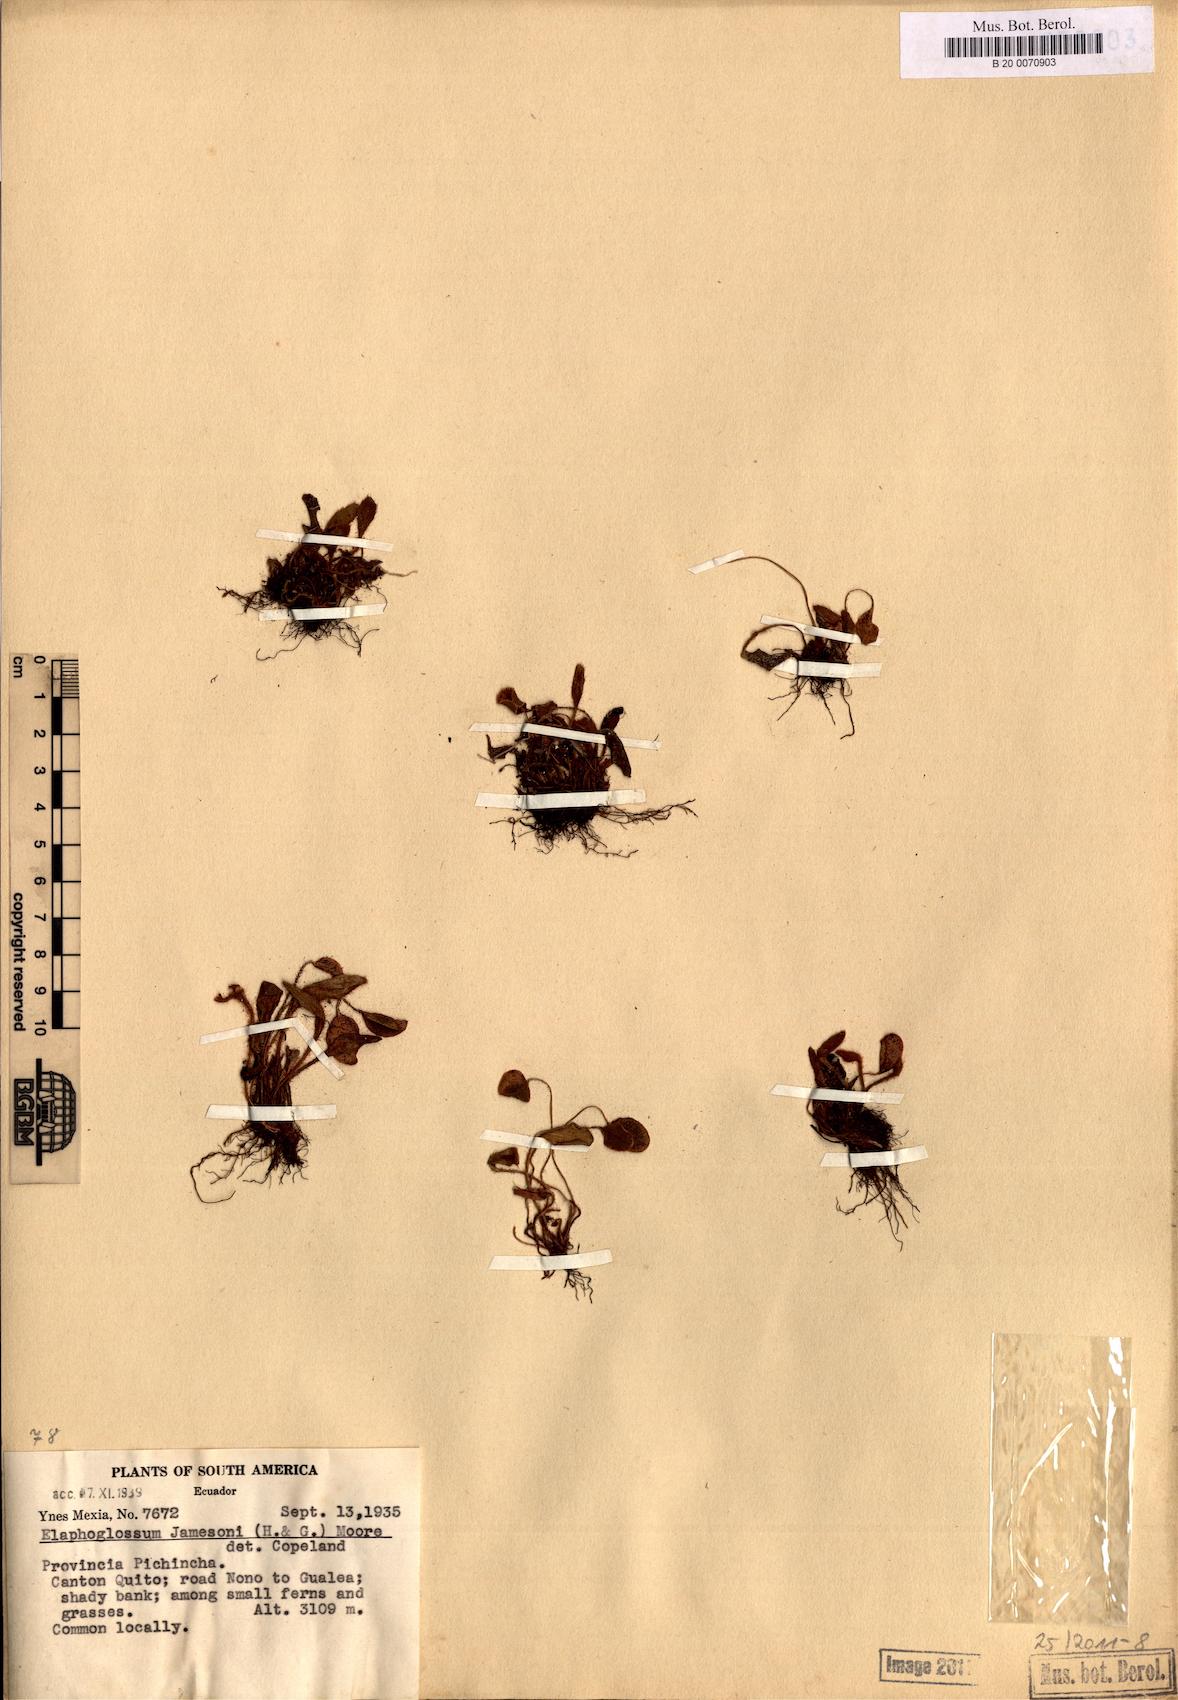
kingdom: Plantae
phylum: Tracheophyta
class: Polypodiopsida
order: Polypodiales
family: Dryopteridaceae
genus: Elaphoglossum
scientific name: Elaphoglossum piloselloides
